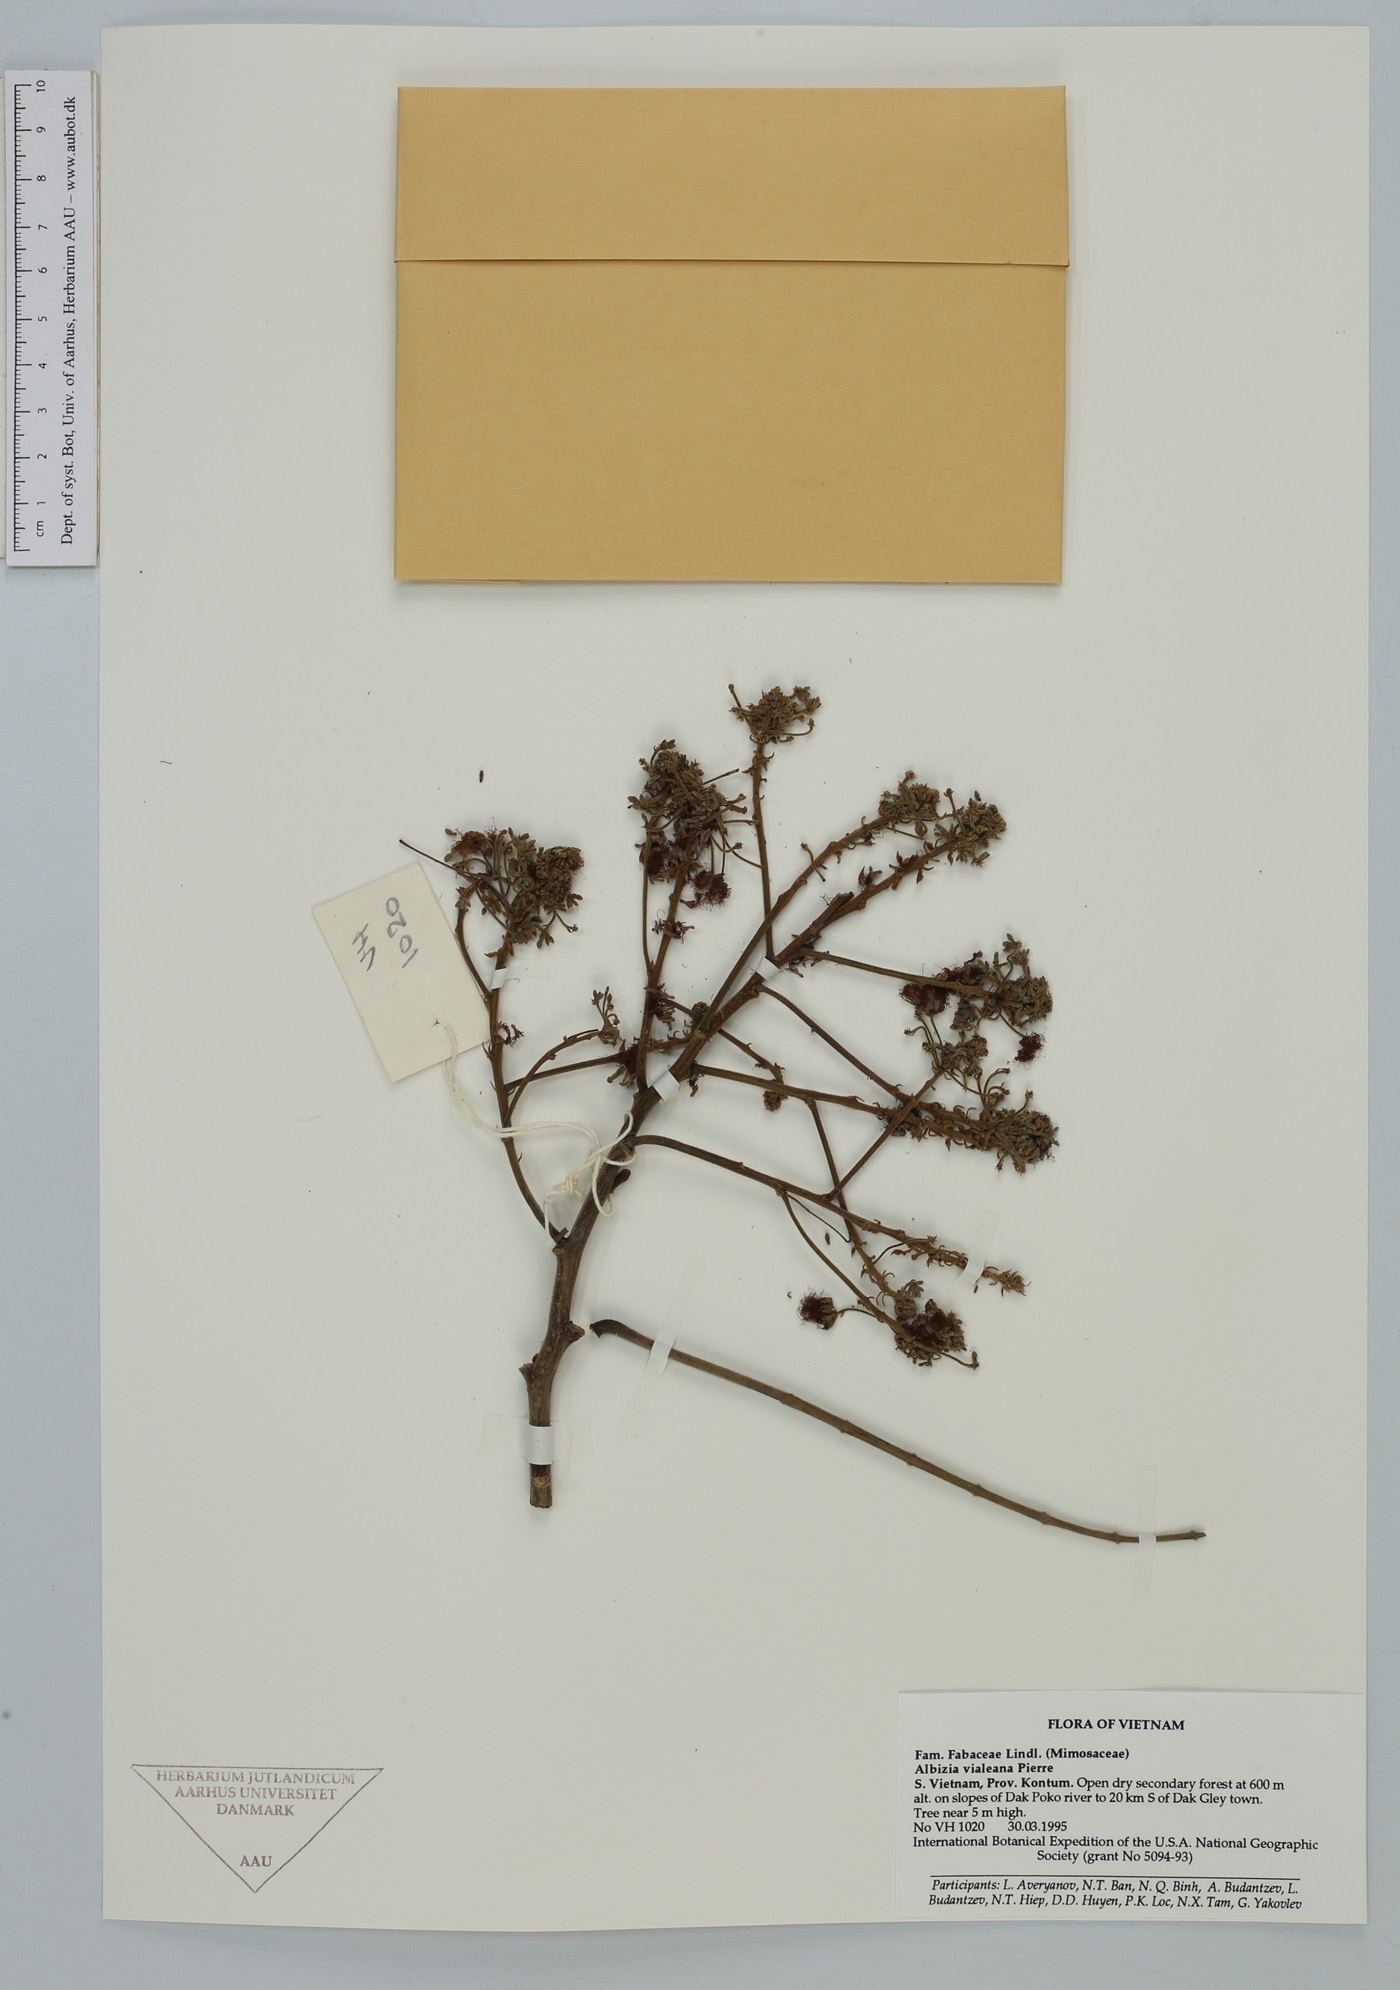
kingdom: Plantae
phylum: Tracheophyta
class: Magnoliopsida
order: Fabales
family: Fabaceae
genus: Albizia
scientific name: Albizia vialeana
